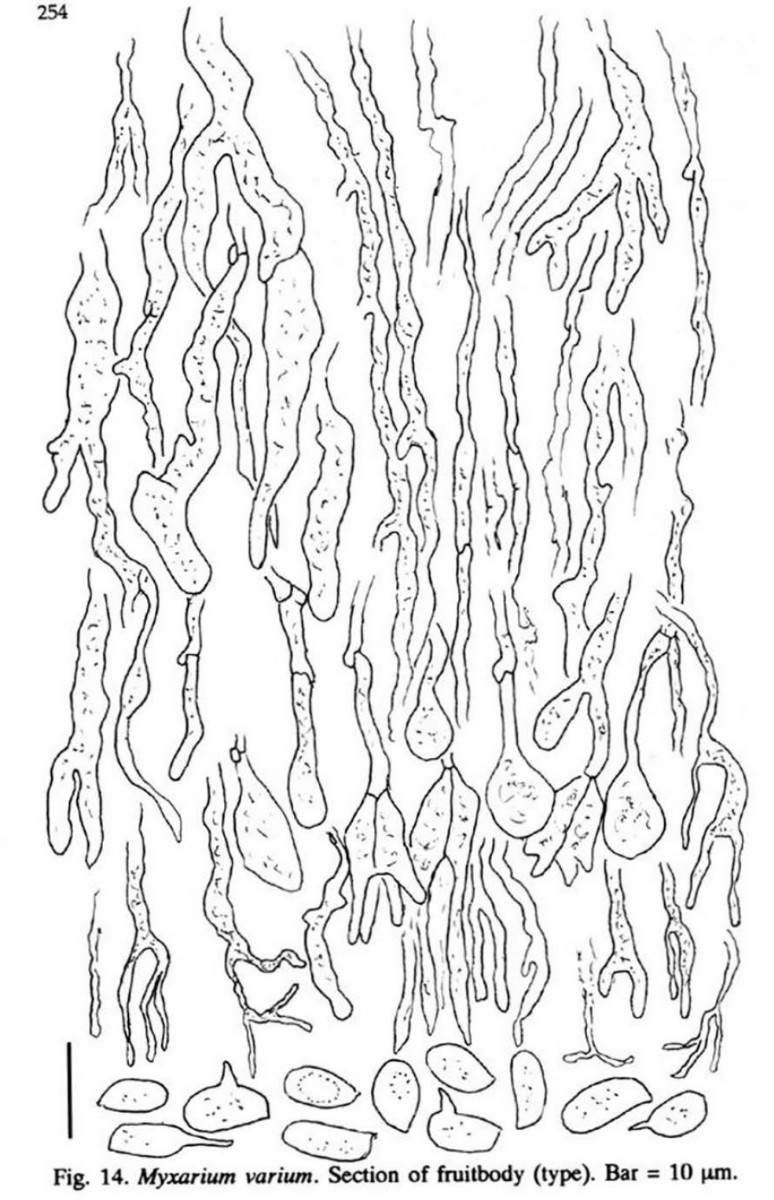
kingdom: Fungi
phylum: Basidiomycota
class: Agaricomycetes
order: Auriculariales
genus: Stypella
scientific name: Stypella grilletii
